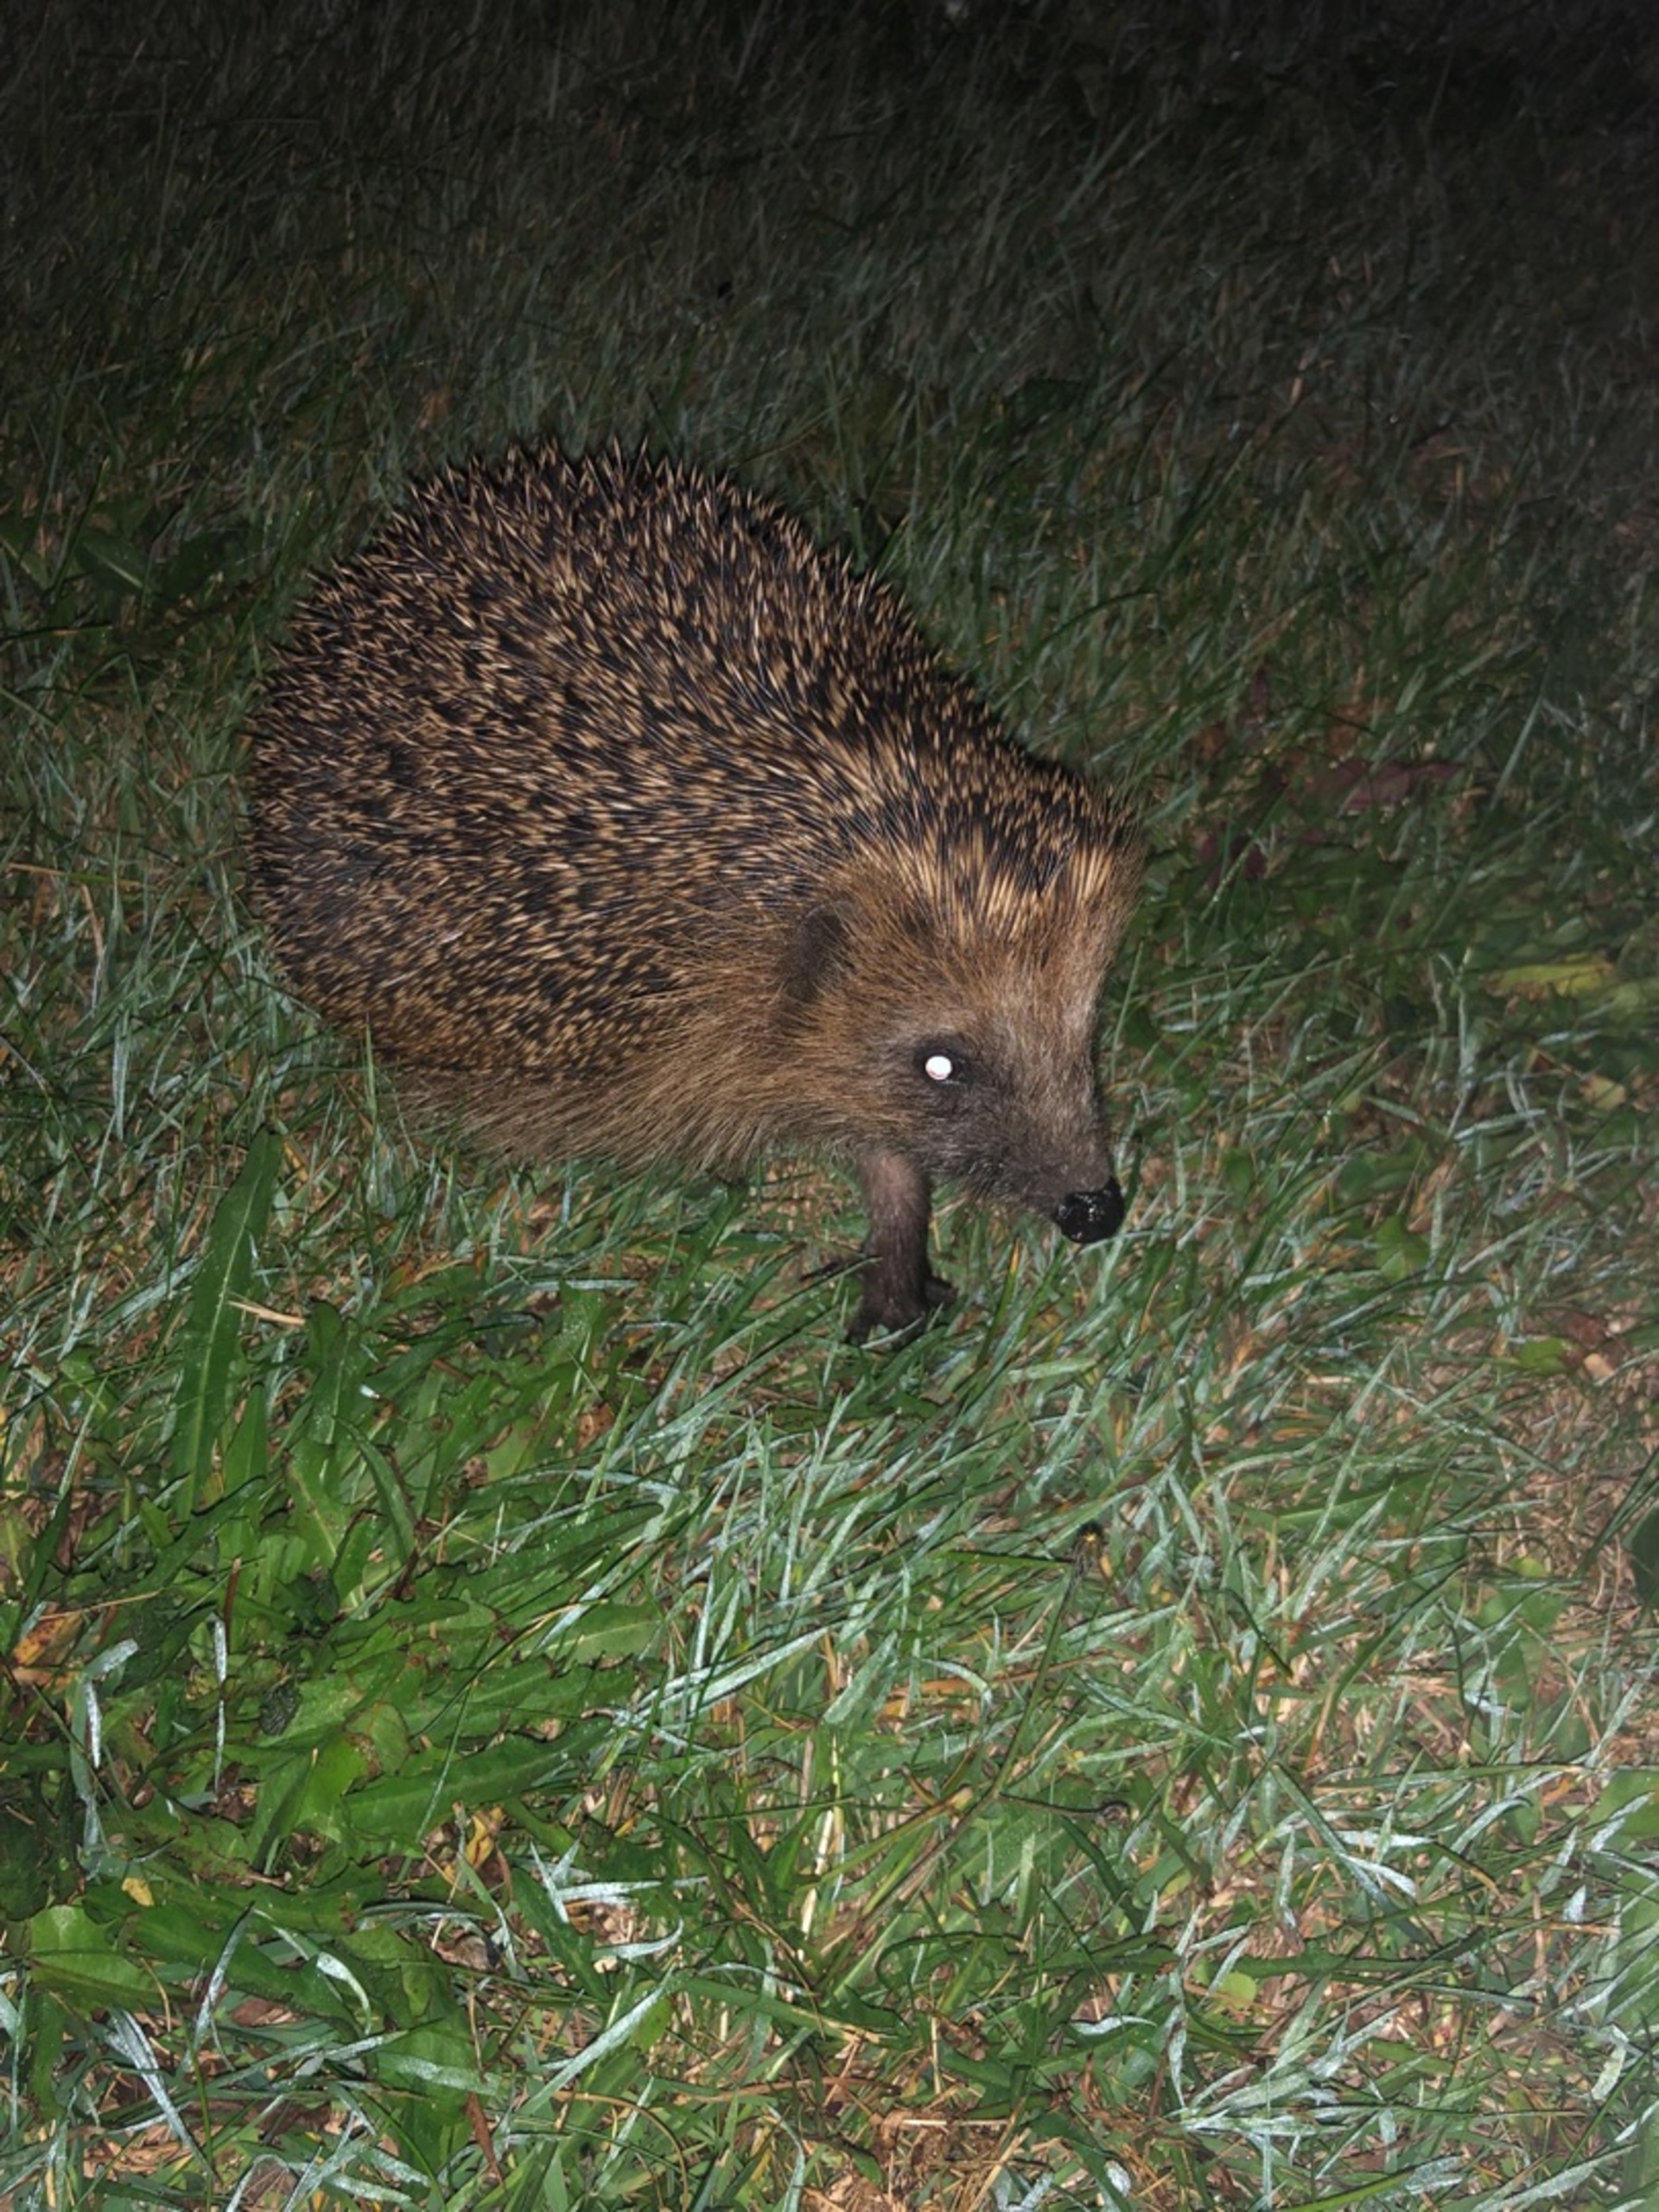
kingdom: Animalia
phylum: Chordata
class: Mammalia
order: Erinaceomorpha
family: Erinaceidae
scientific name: Erinaceidae
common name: Pindsvin
